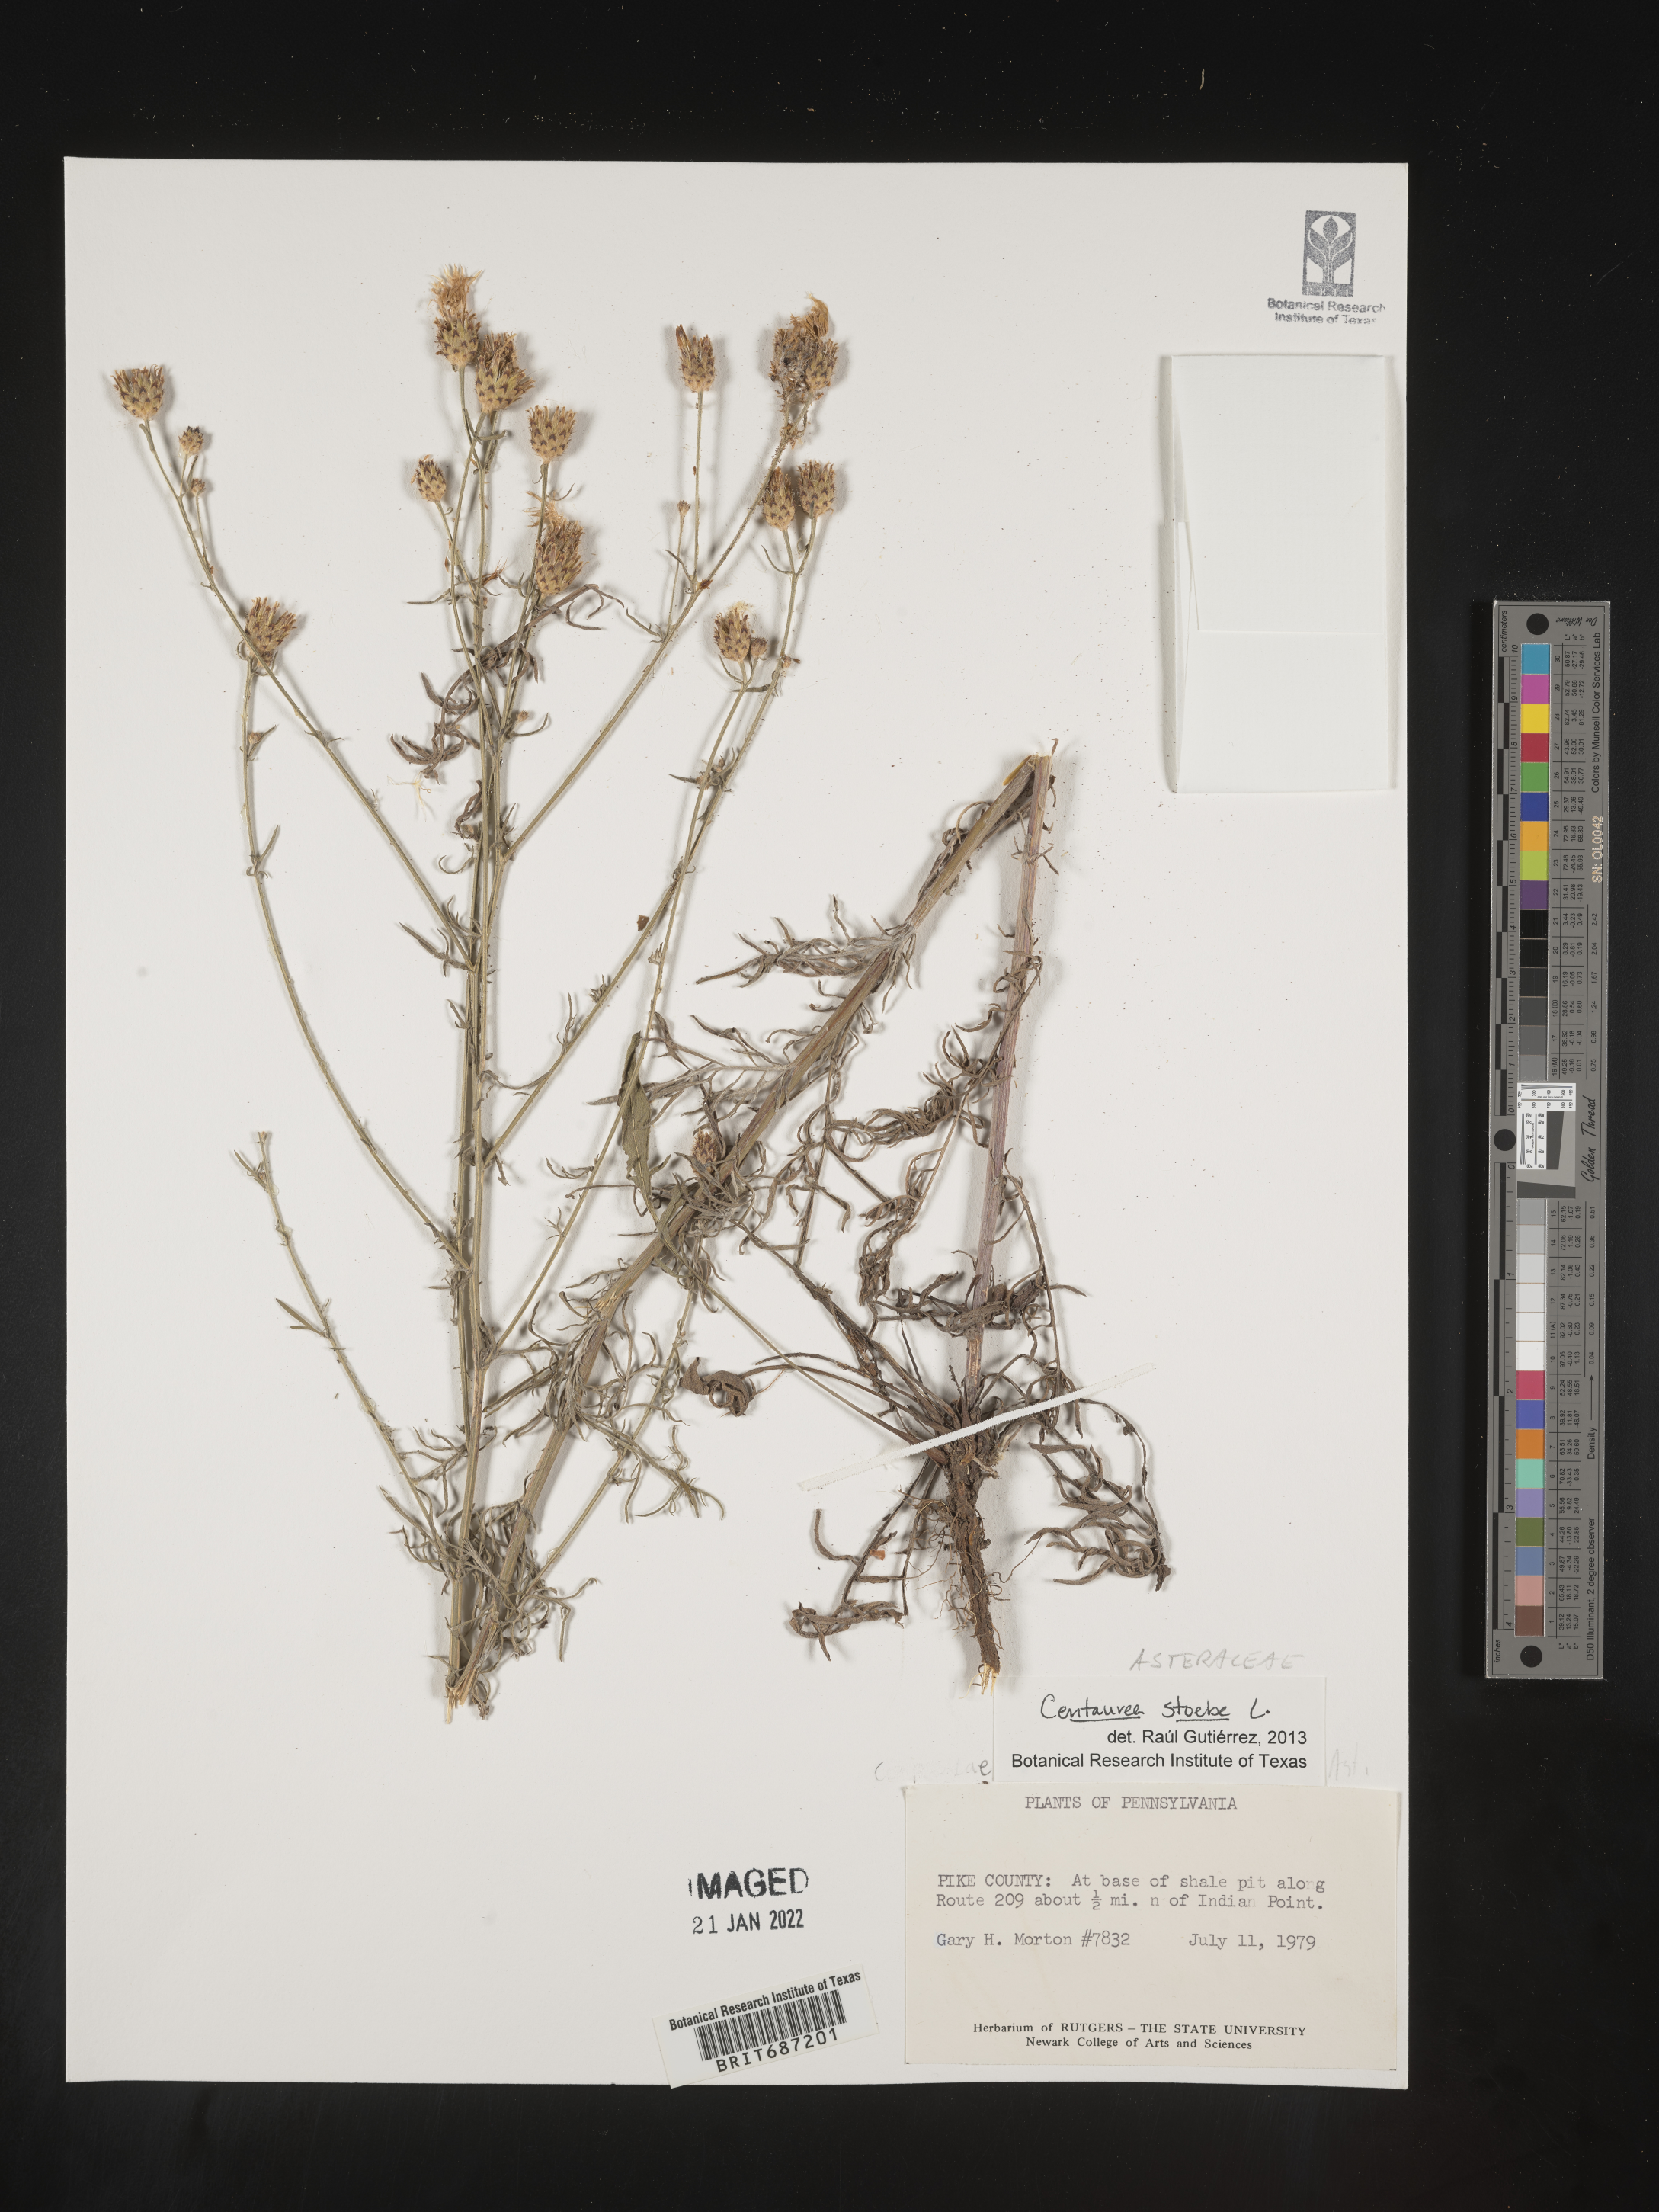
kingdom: Plantae
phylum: Tracheophyta
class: Magnoliopsida
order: Asterales
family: Asteraceae
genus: Centaurea
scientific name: Centaurea stoebe
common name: Spotted knapweed
